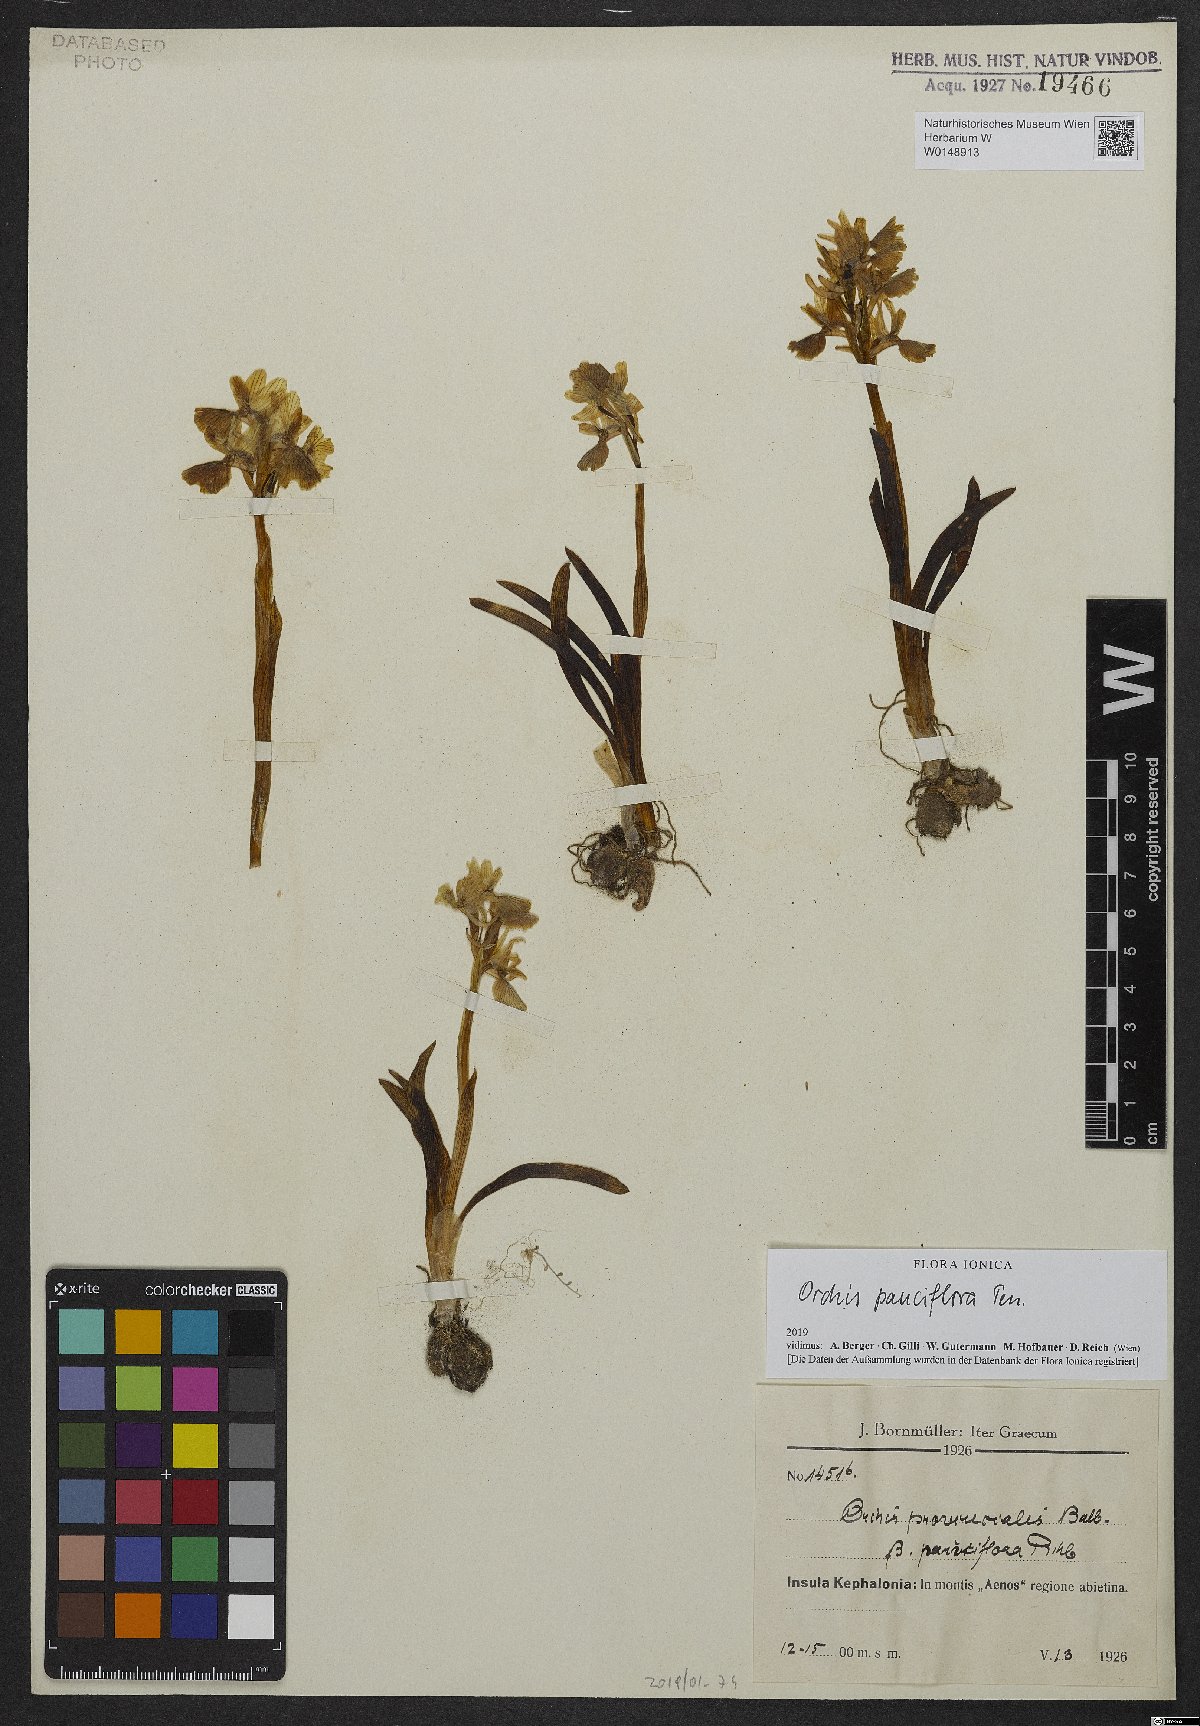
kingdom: Plantae
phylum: Tracheophyta
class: Liliopsida
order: Asparagales
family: Orchidaceae
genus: Orchis
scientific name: Orchis pauciflora
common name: Few-flowered orchid
